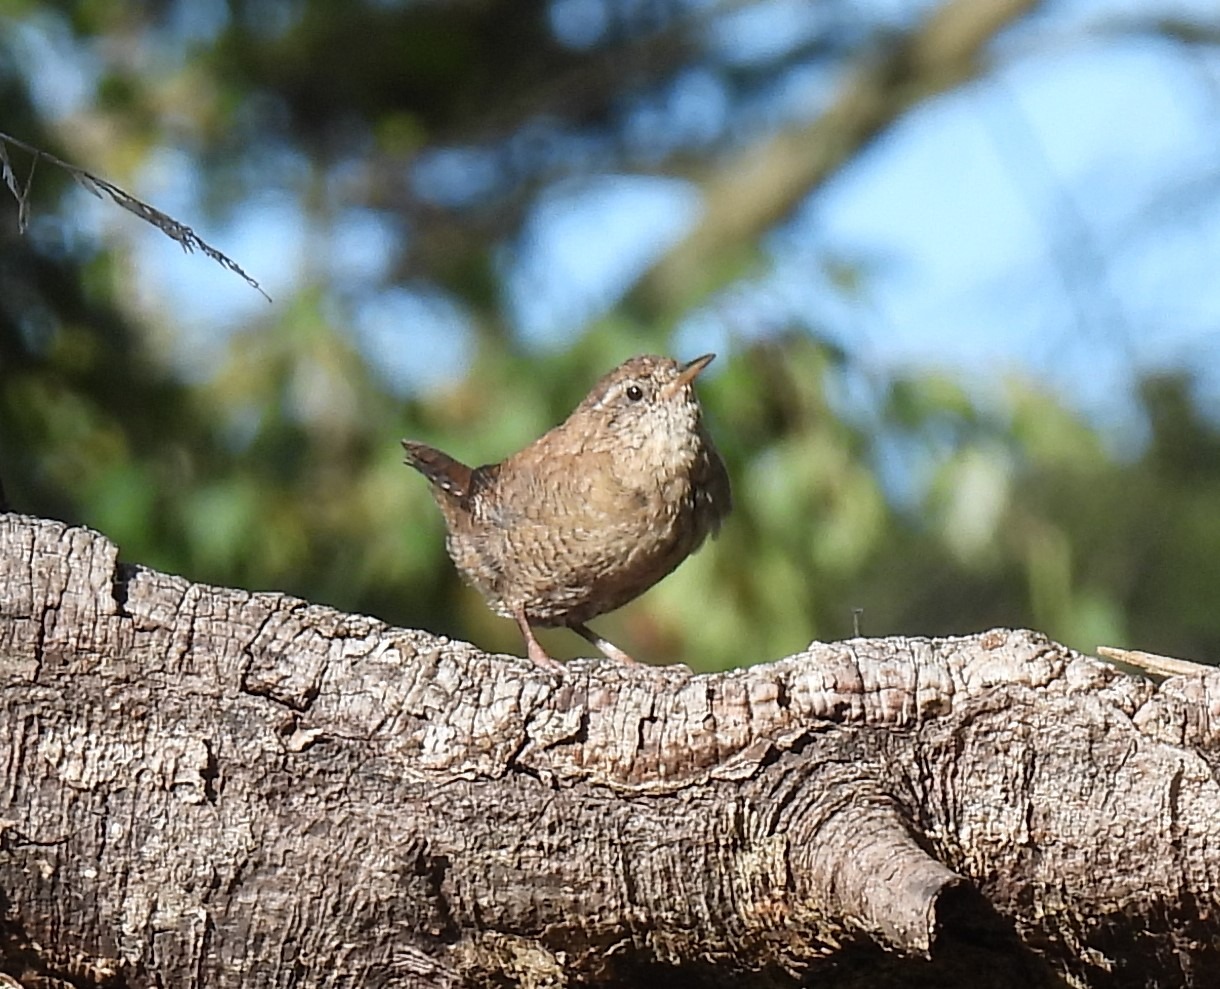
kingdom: Animalia
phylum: Chordata
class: Aves
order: Passeriformes
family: Troglodytidae
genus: Troglodytes
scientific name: Troglodytes troglodytes
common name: Gærdesmutte
